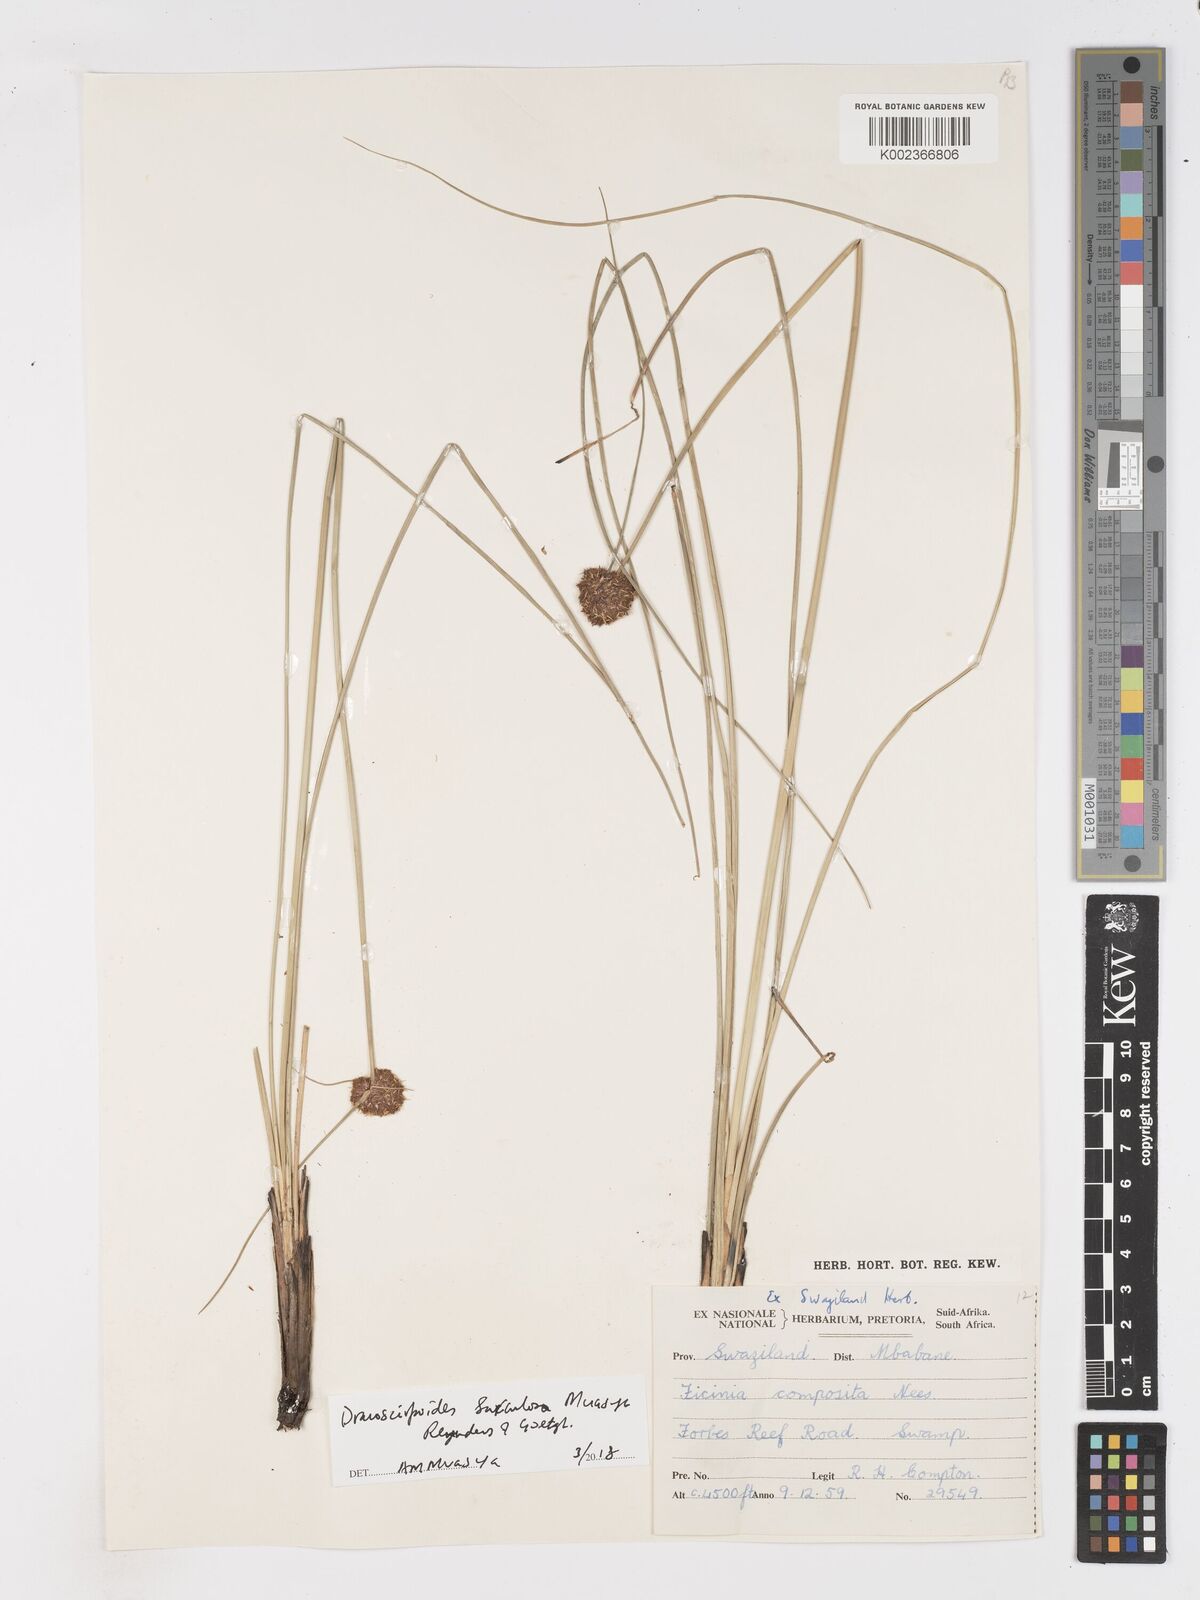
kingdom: Plantae
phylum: Tracheophyta
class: Liliopsida
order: Poales
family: Cyperaceae
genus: Dracoscirpoides
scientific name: Dracoscirpoides surculosa
